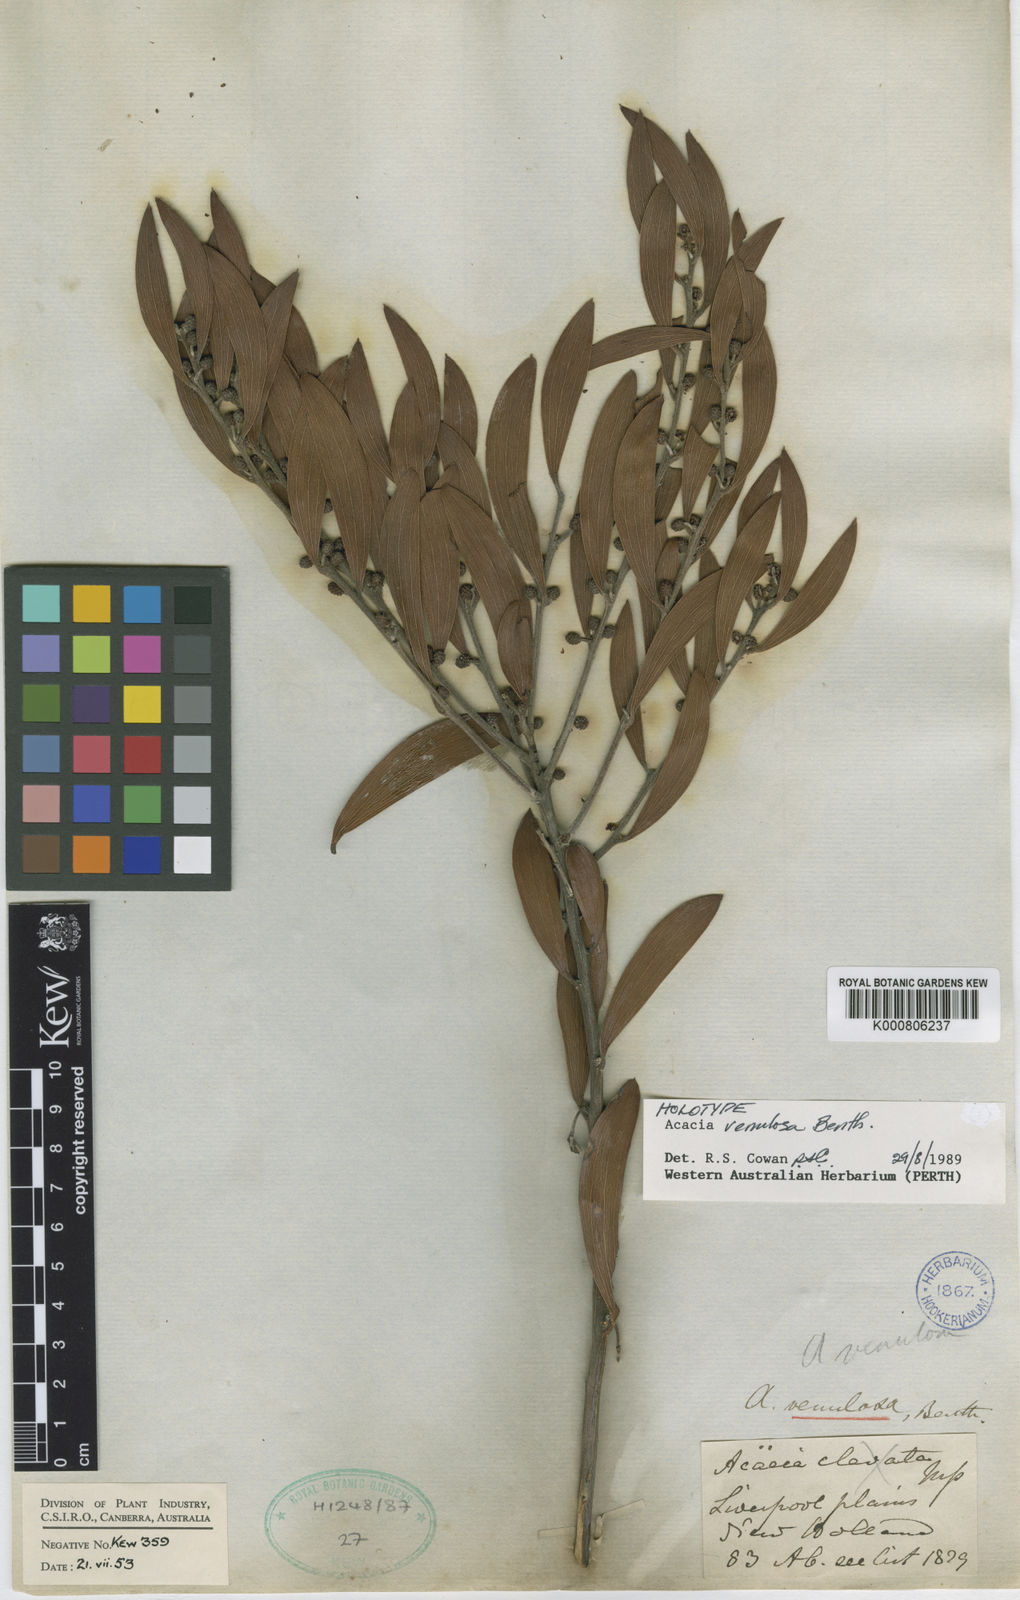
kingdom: Plantae
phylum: Tracheophyta
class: Magnoliopsida
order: Fabales
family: Fabaceae
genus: Acacia
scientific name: Acacia venulosa
